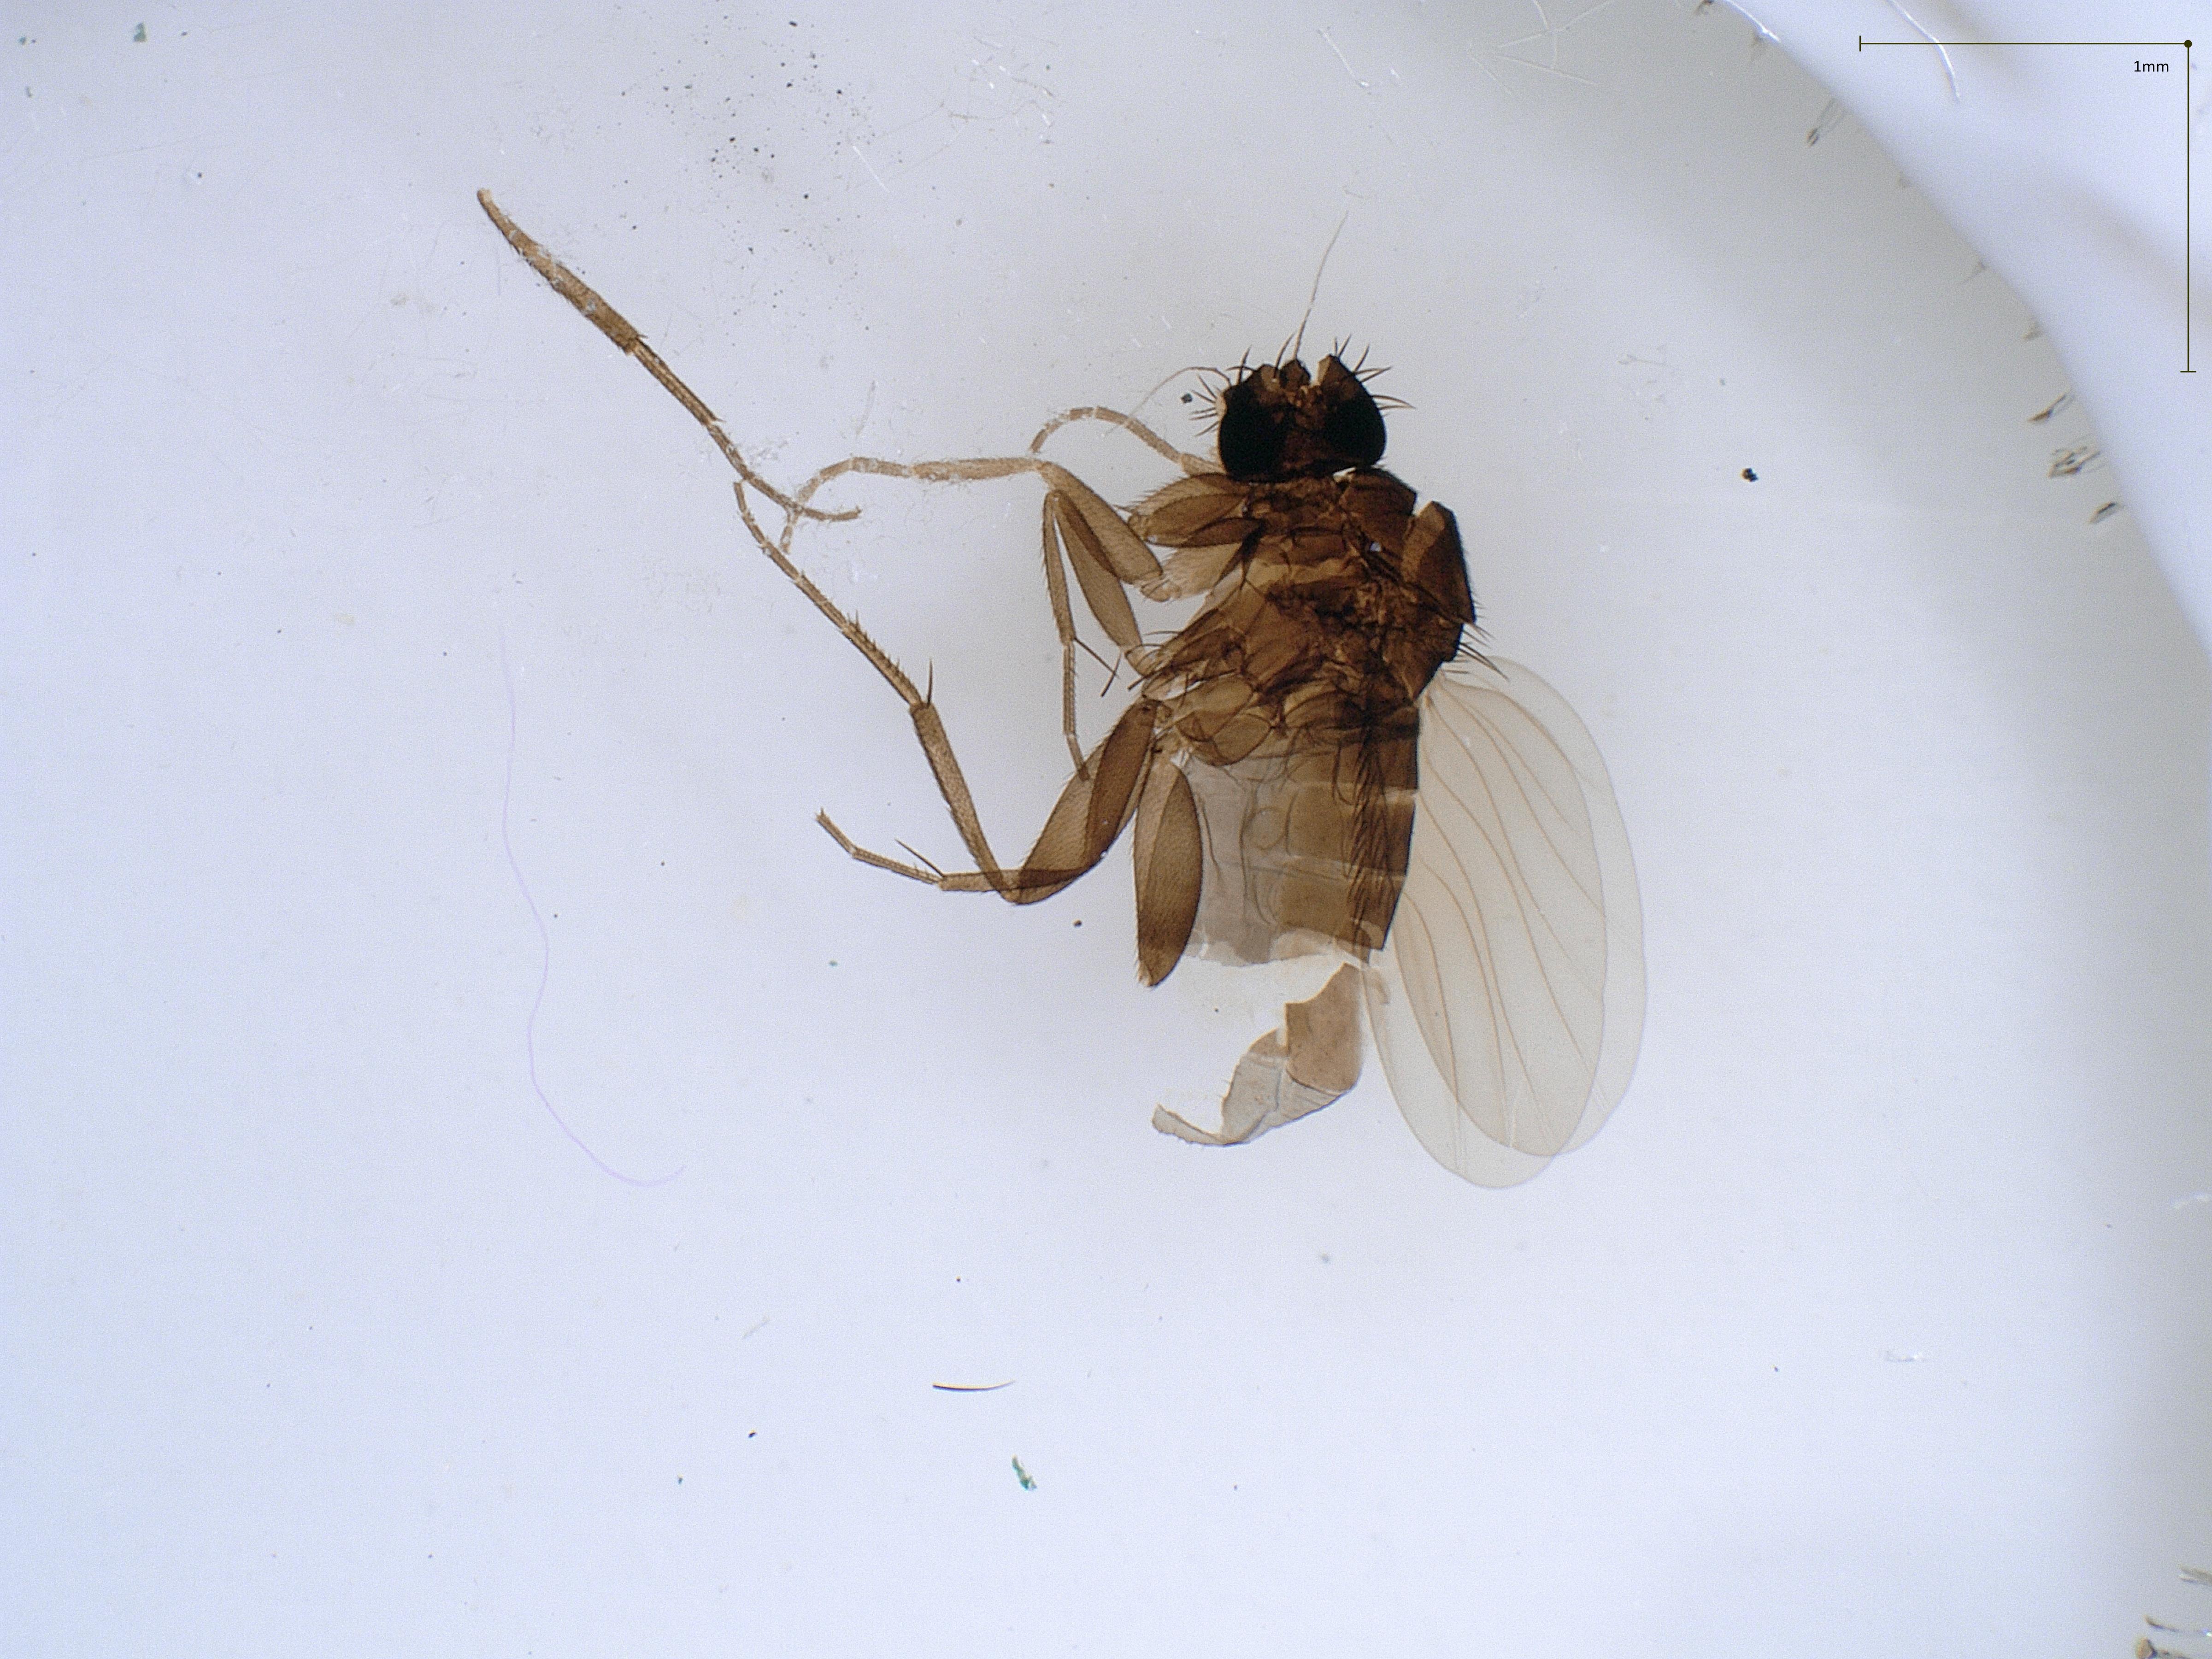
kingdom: Animalia
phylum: Arthropoda
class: Insecta
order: Diptera
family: Phoridae
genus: Megaselia
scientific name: Megaselia tenebricola
